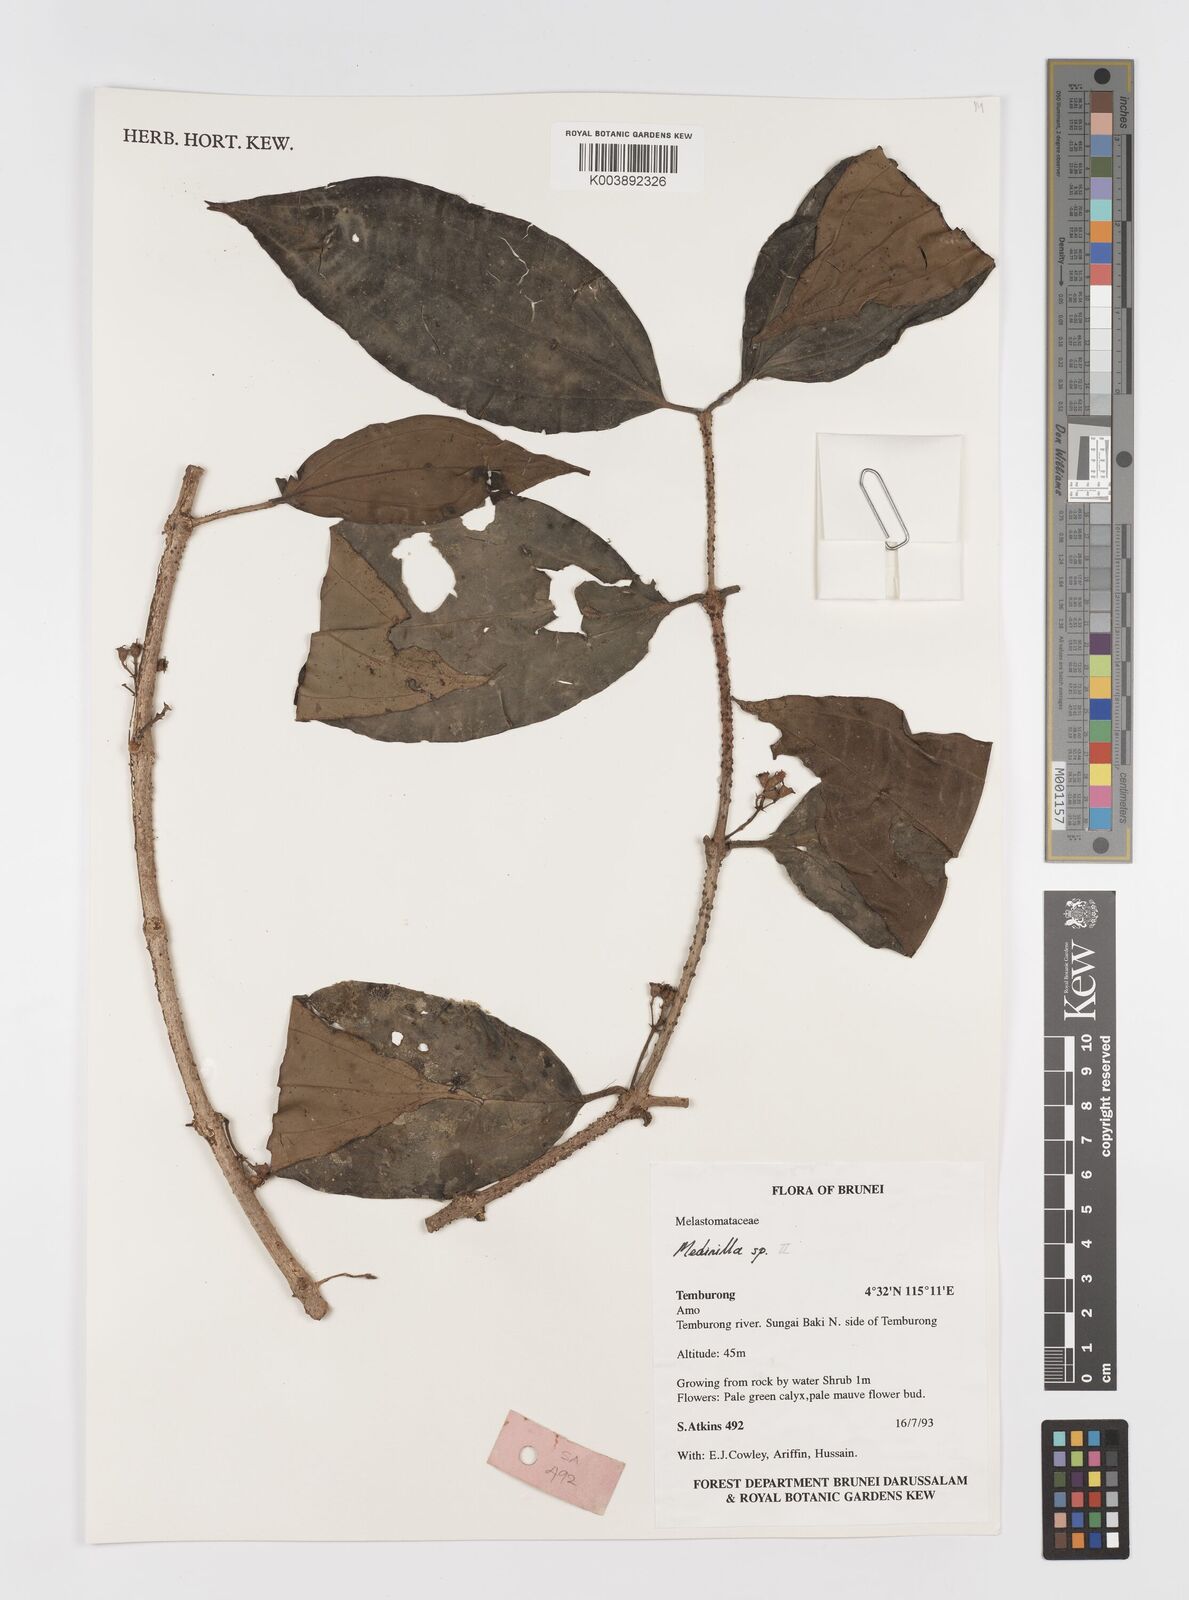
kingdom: Plantae
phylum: Tracheophyta
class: Magnoliopsida
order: Myrtales
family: Melastomataceae
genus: Medinilla
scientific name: Medinilla
